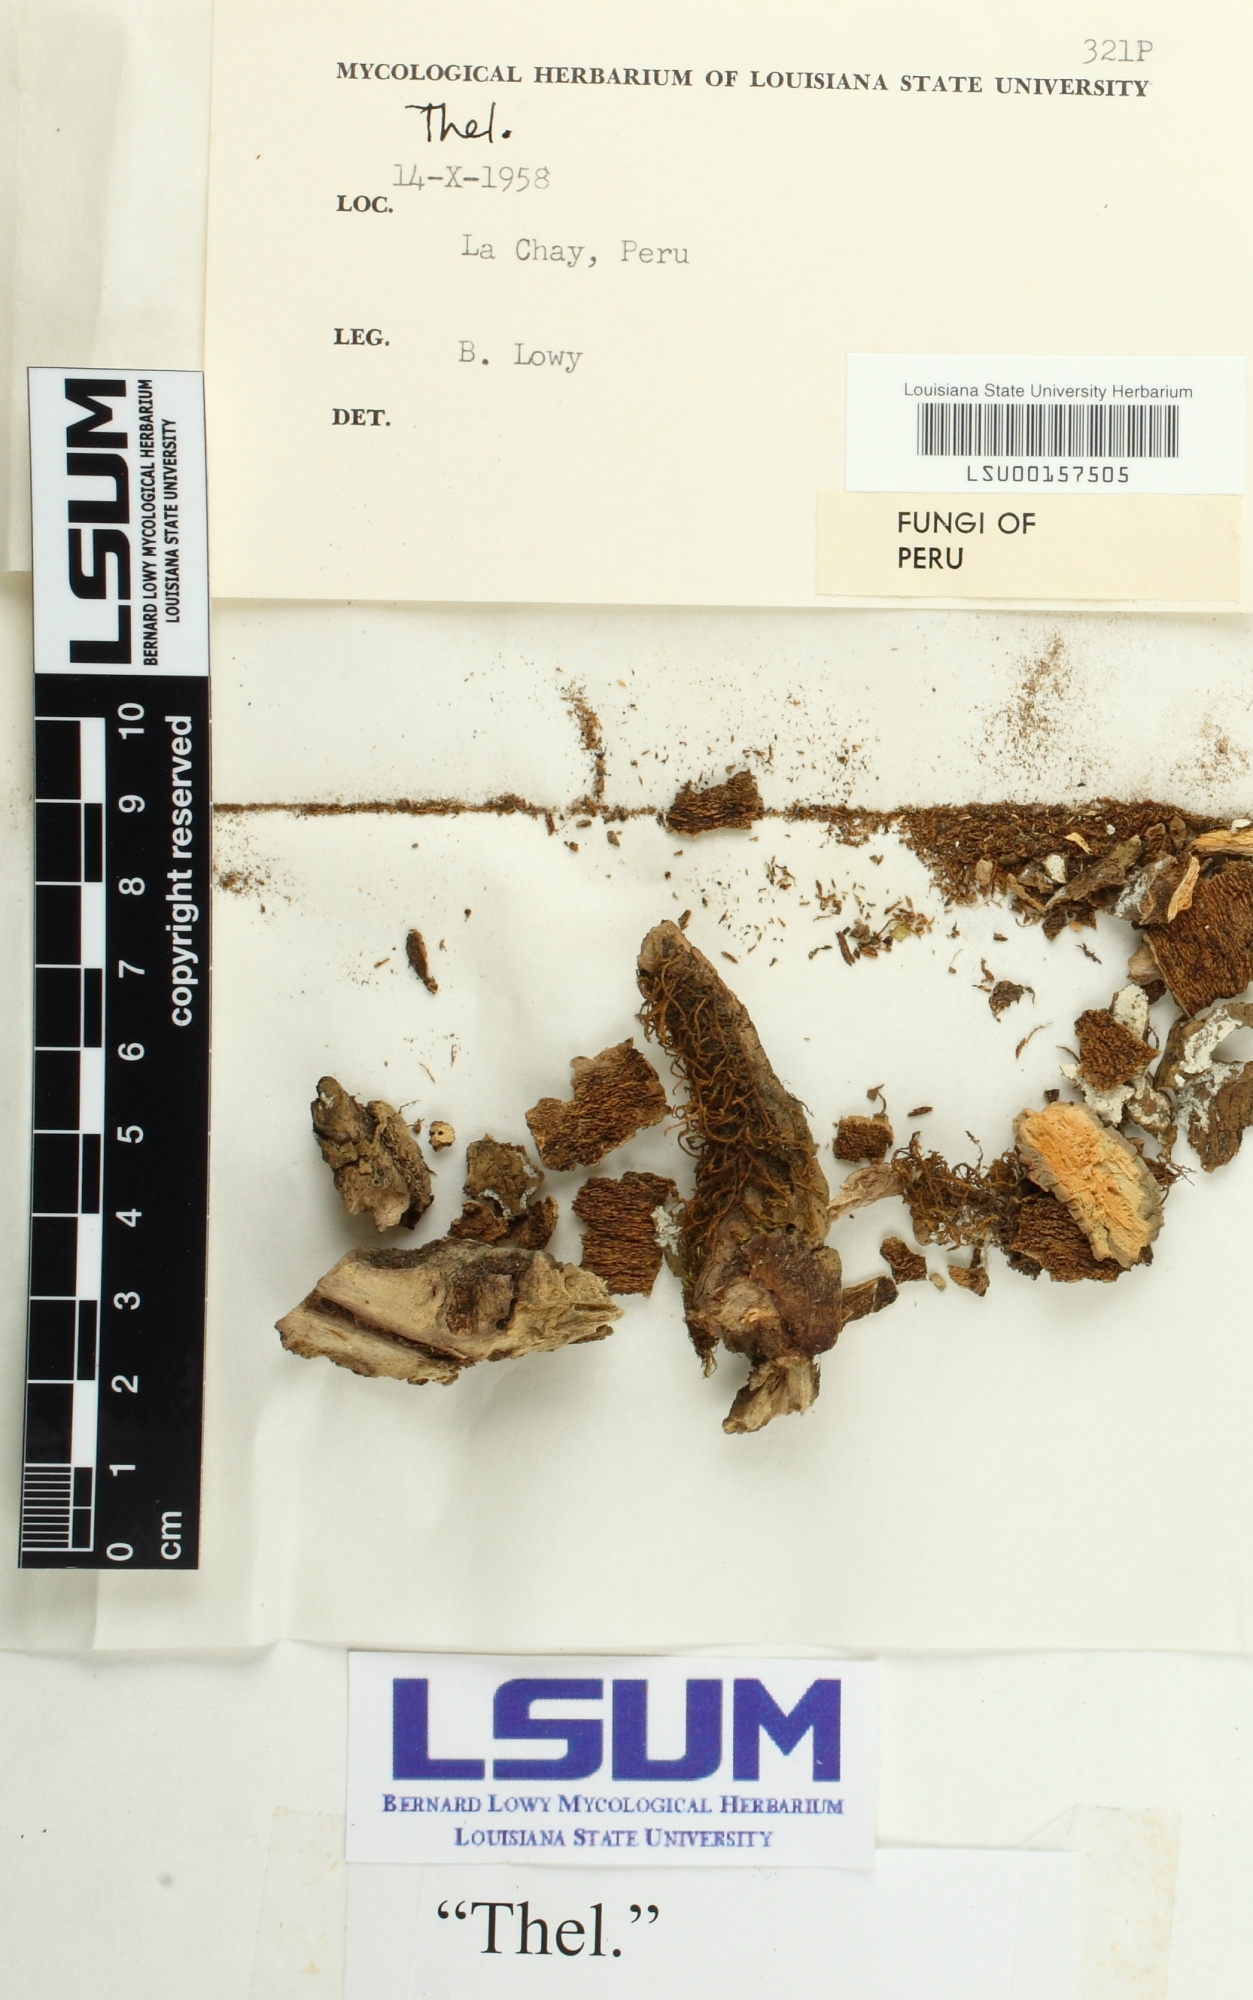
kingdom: Fungi
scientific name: Fungi
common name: Fungi
